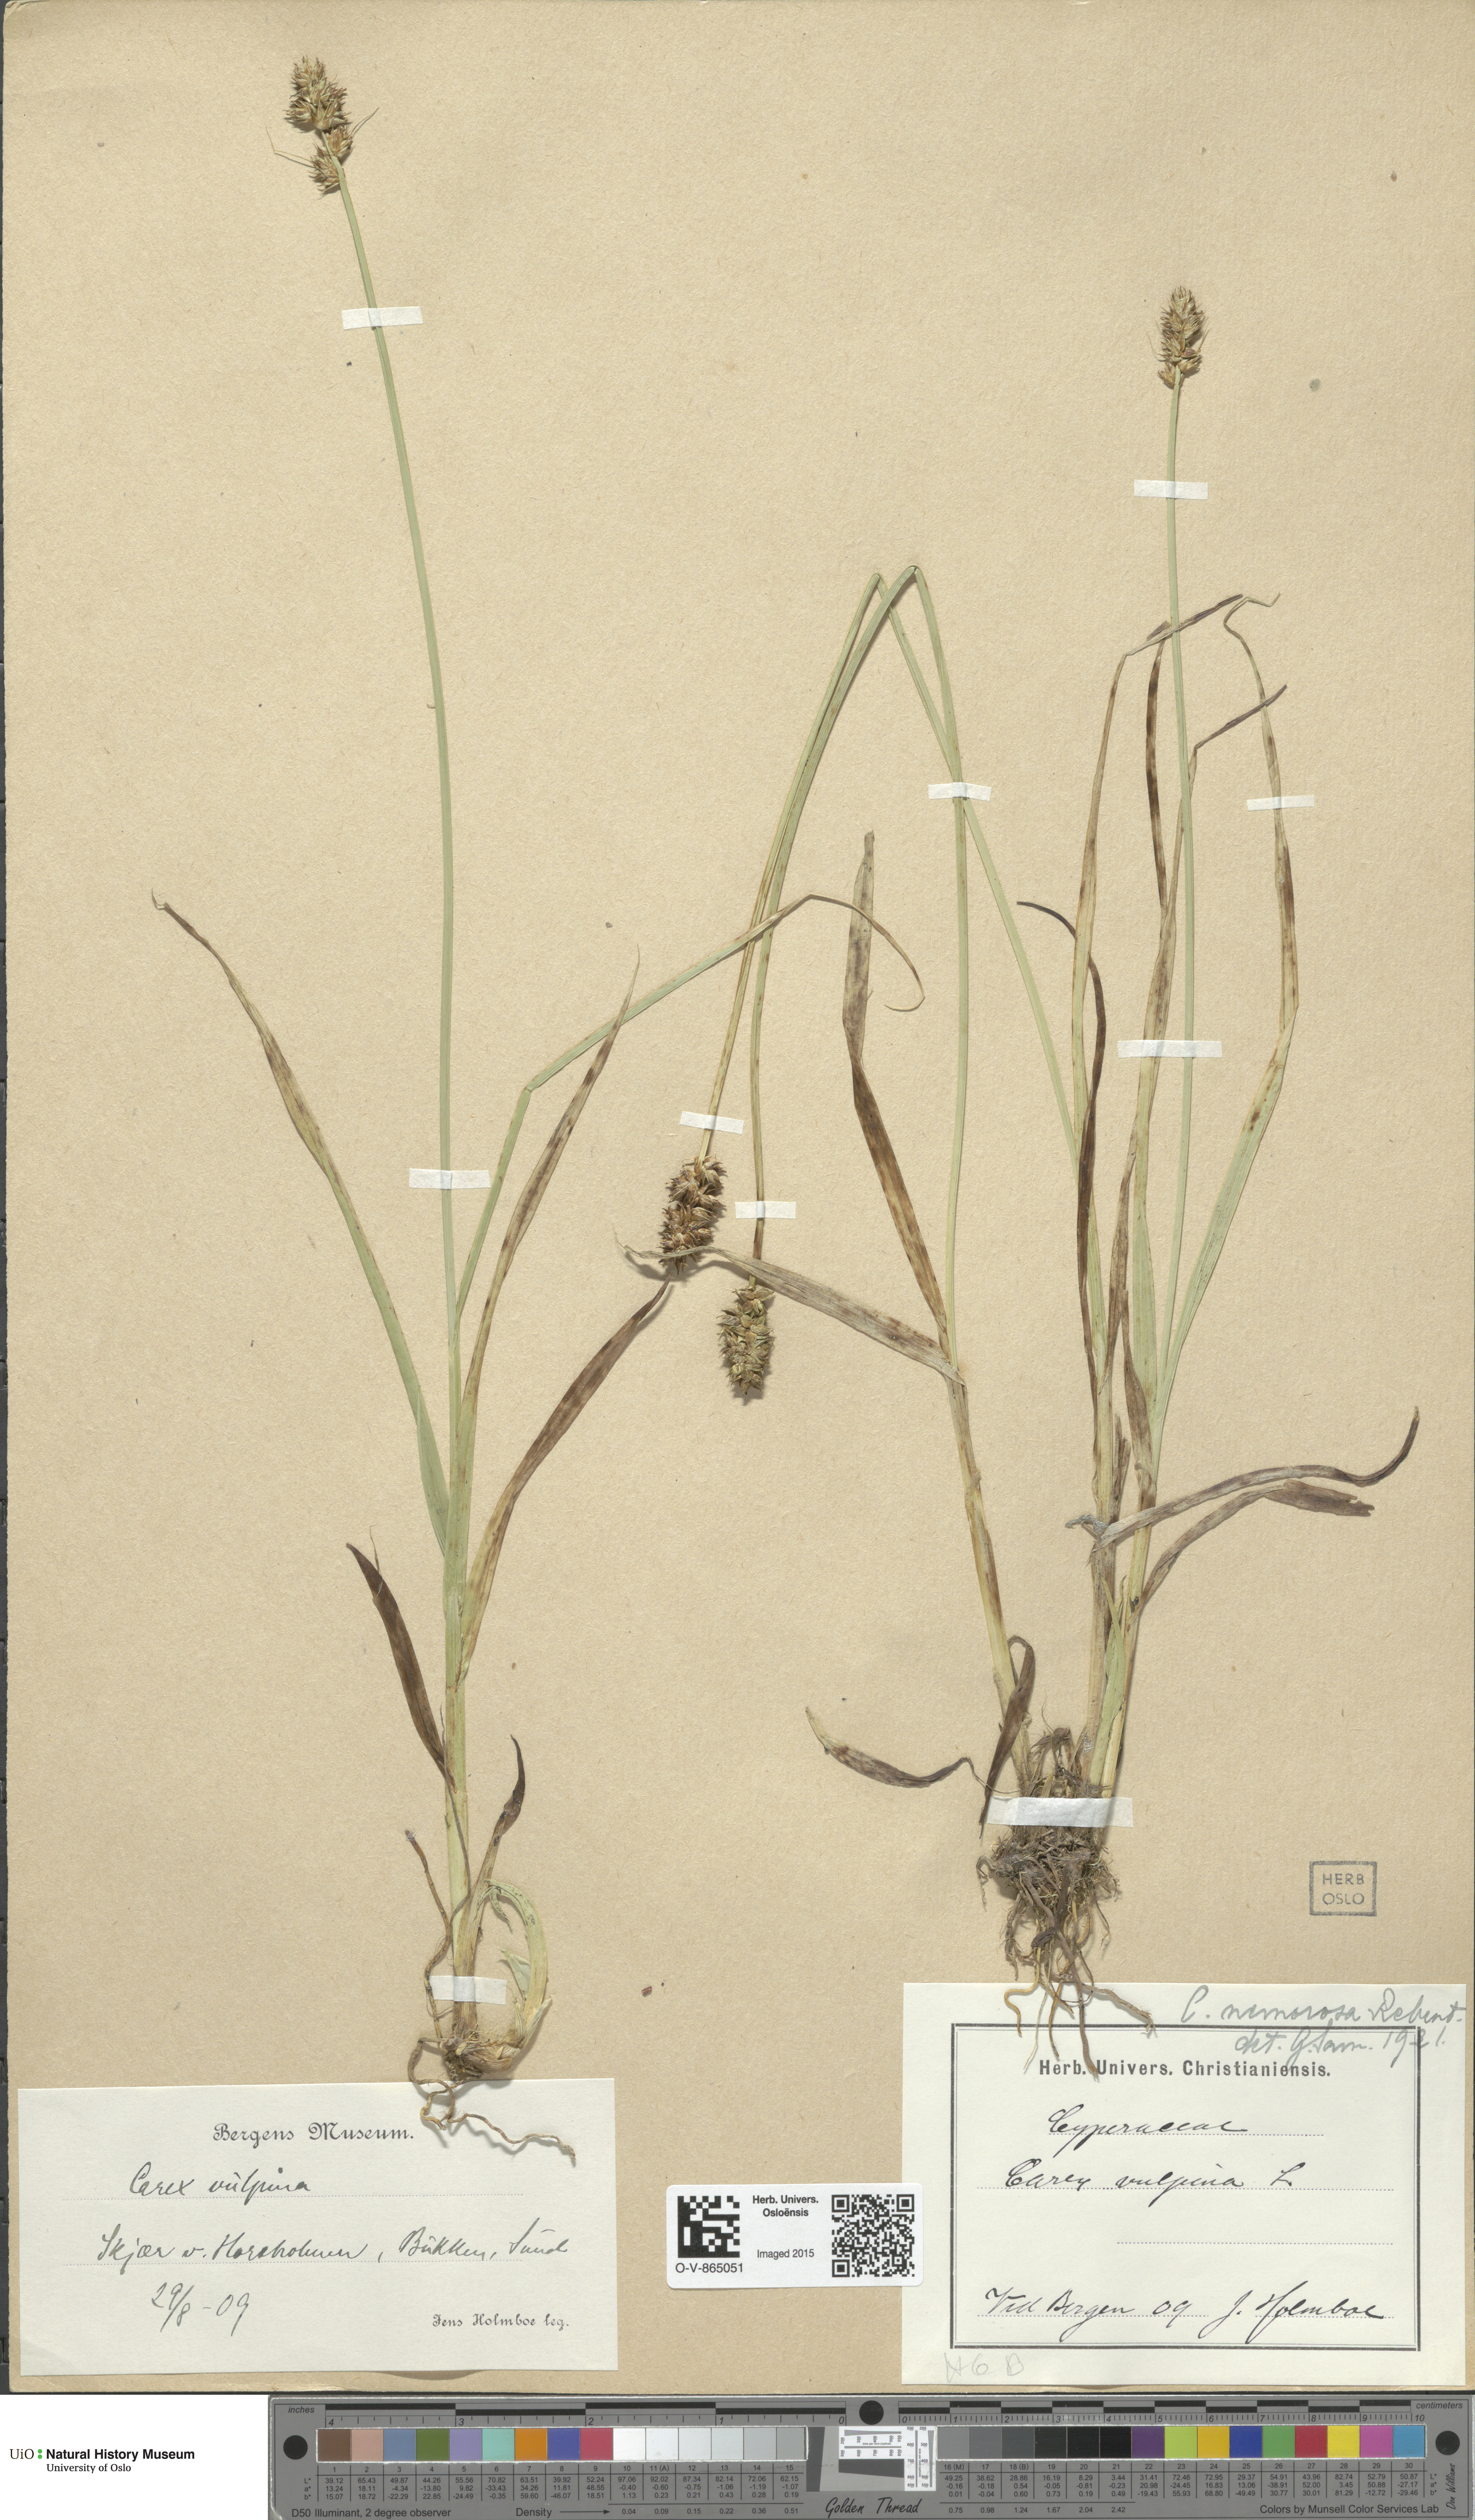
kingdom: Plantae
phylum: Tracheophyta
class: Liliopsida
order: Poales
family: Cyperaceae
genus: Carex
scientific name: Carex otrubae
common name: False fox-sedge
